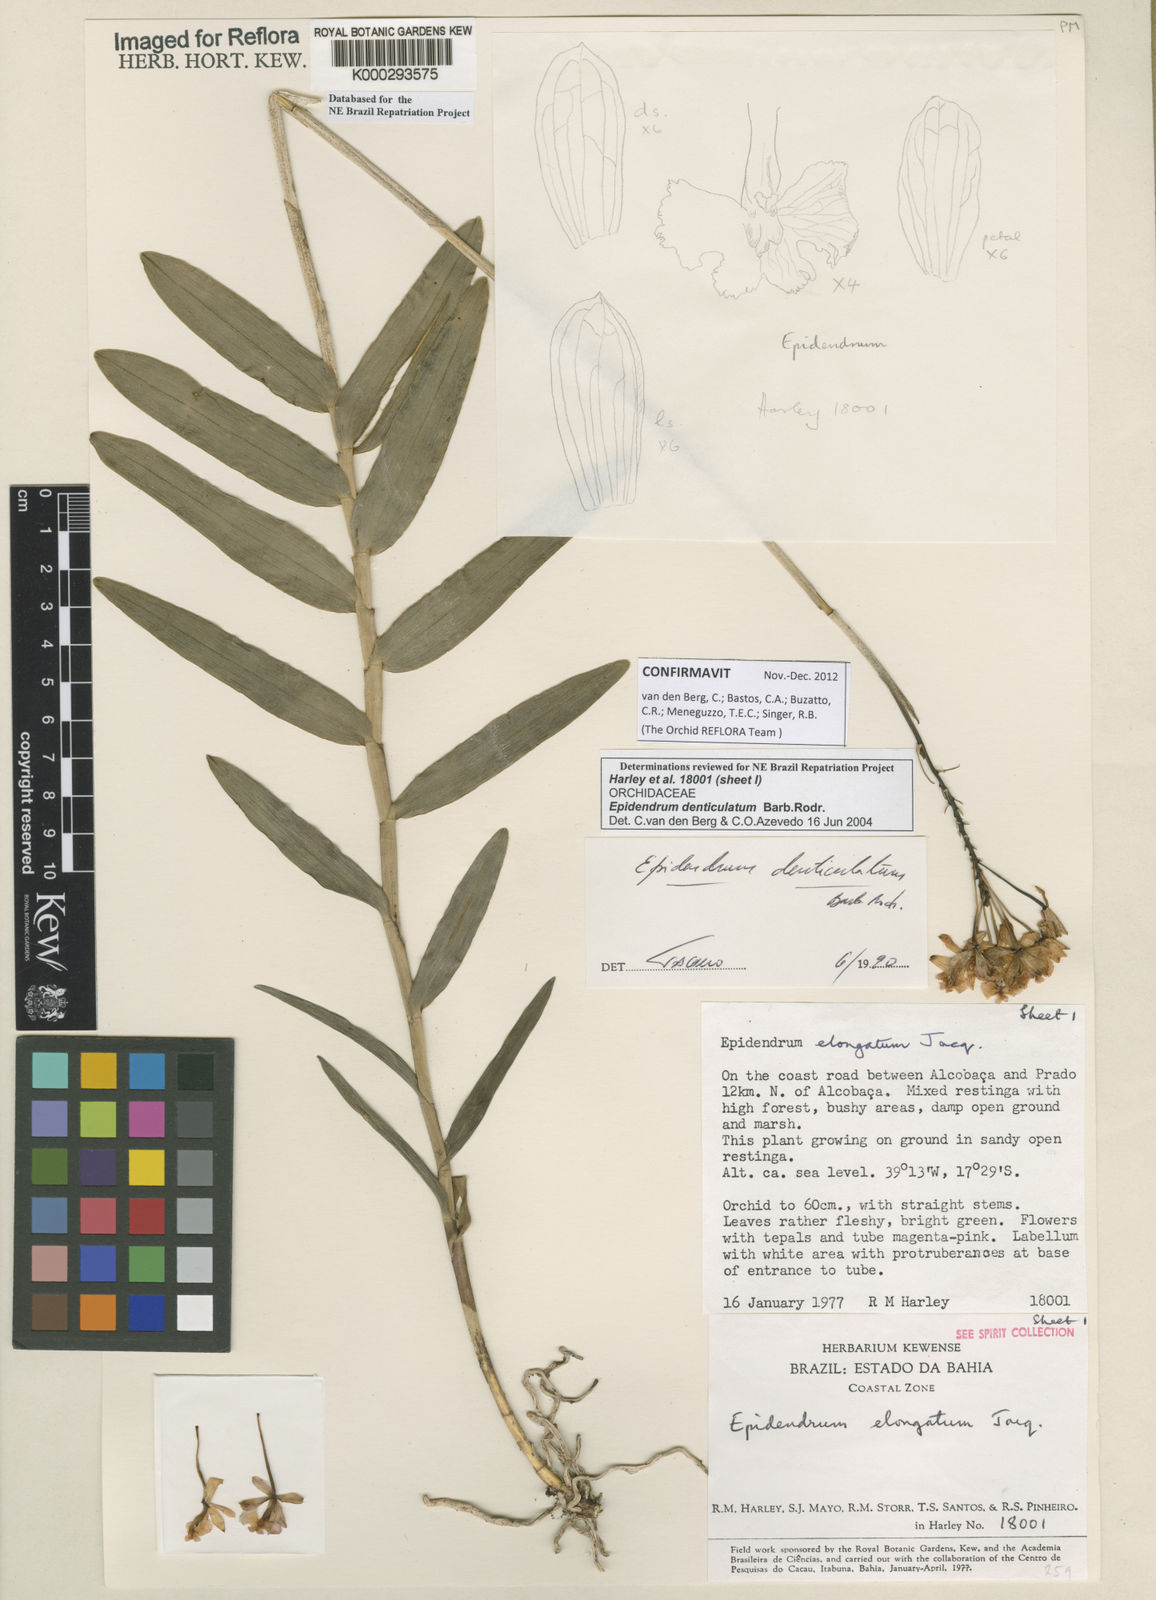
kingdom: Plantae
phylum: Tracheophyta
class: Liliopsida
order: Asparagales
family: Orchidaceae
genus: Epidendrum
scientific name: Epidendrum denticulatum
